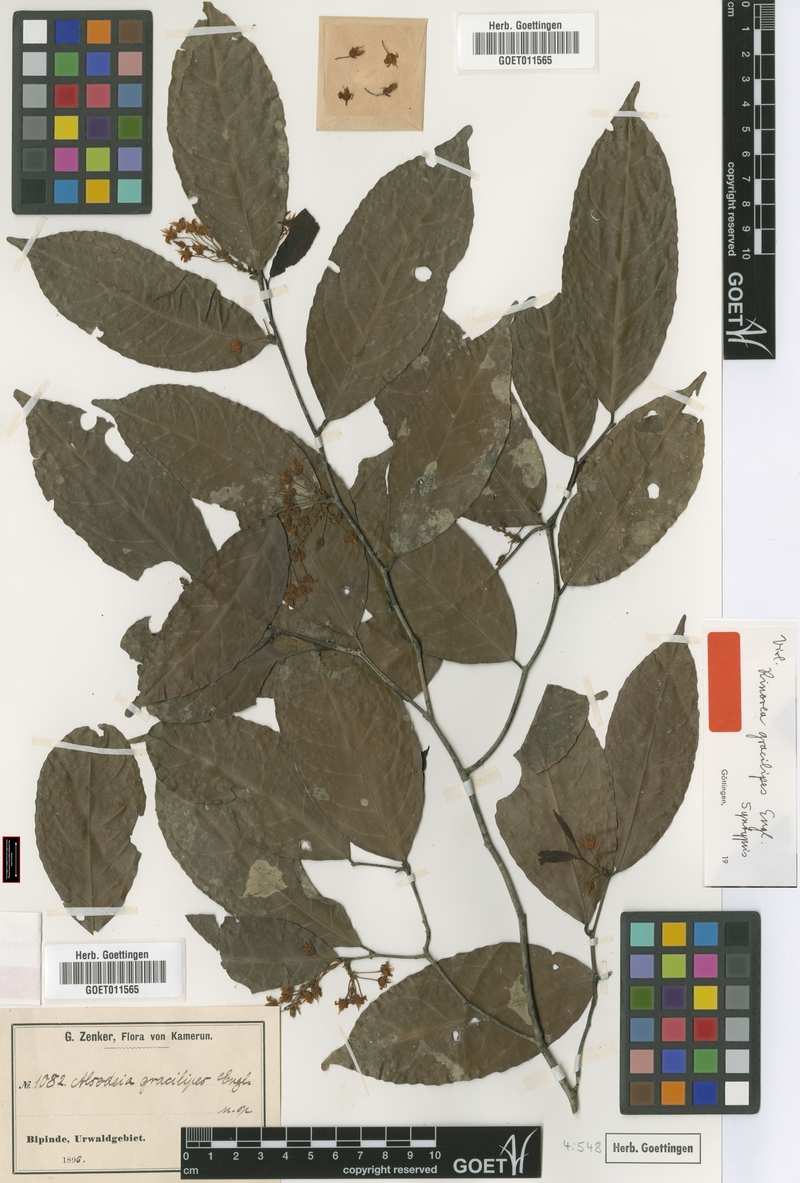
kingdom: Plantae
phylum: Tracheophyta
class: Magnoliopsida
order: Malpighiales
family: Violaceae
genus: Rinorea
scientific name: Rinorea angustifolia
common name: White violet-bush
